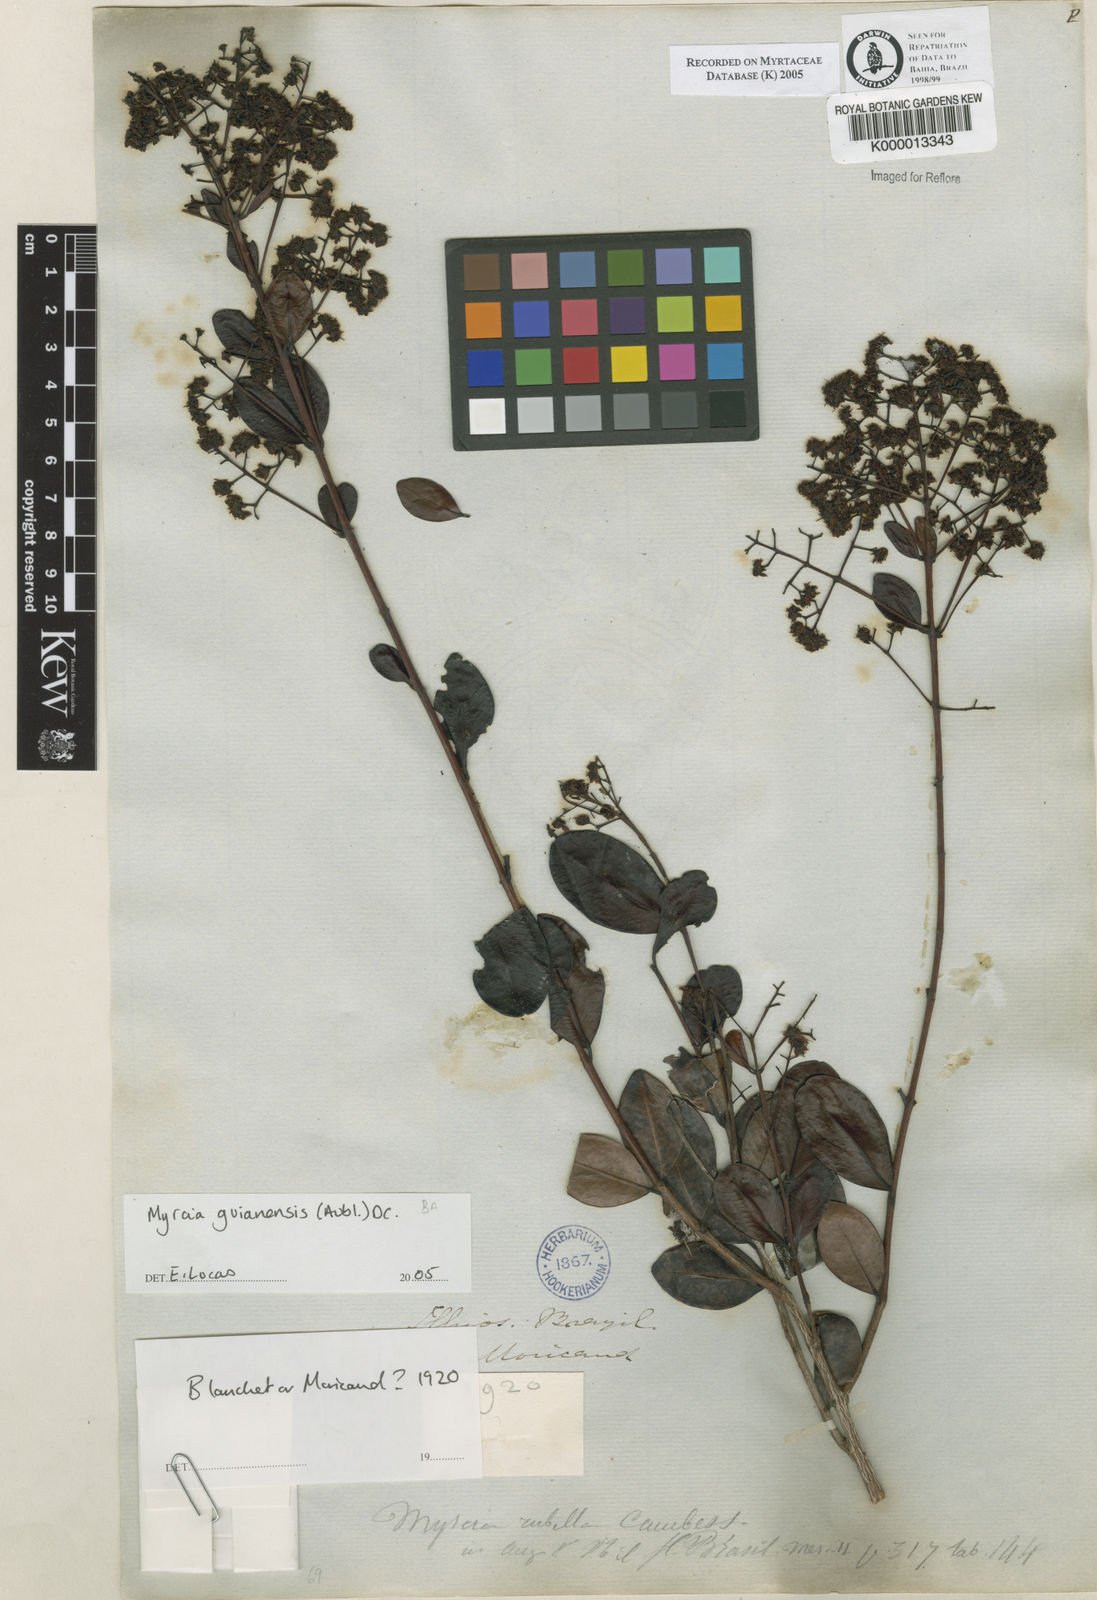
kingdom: Plantae
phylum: Tracheophyta
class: Magnoliopsida
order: Myrtales
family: Myrtaceae
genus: Myrcia
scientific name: Myrcia rubella
